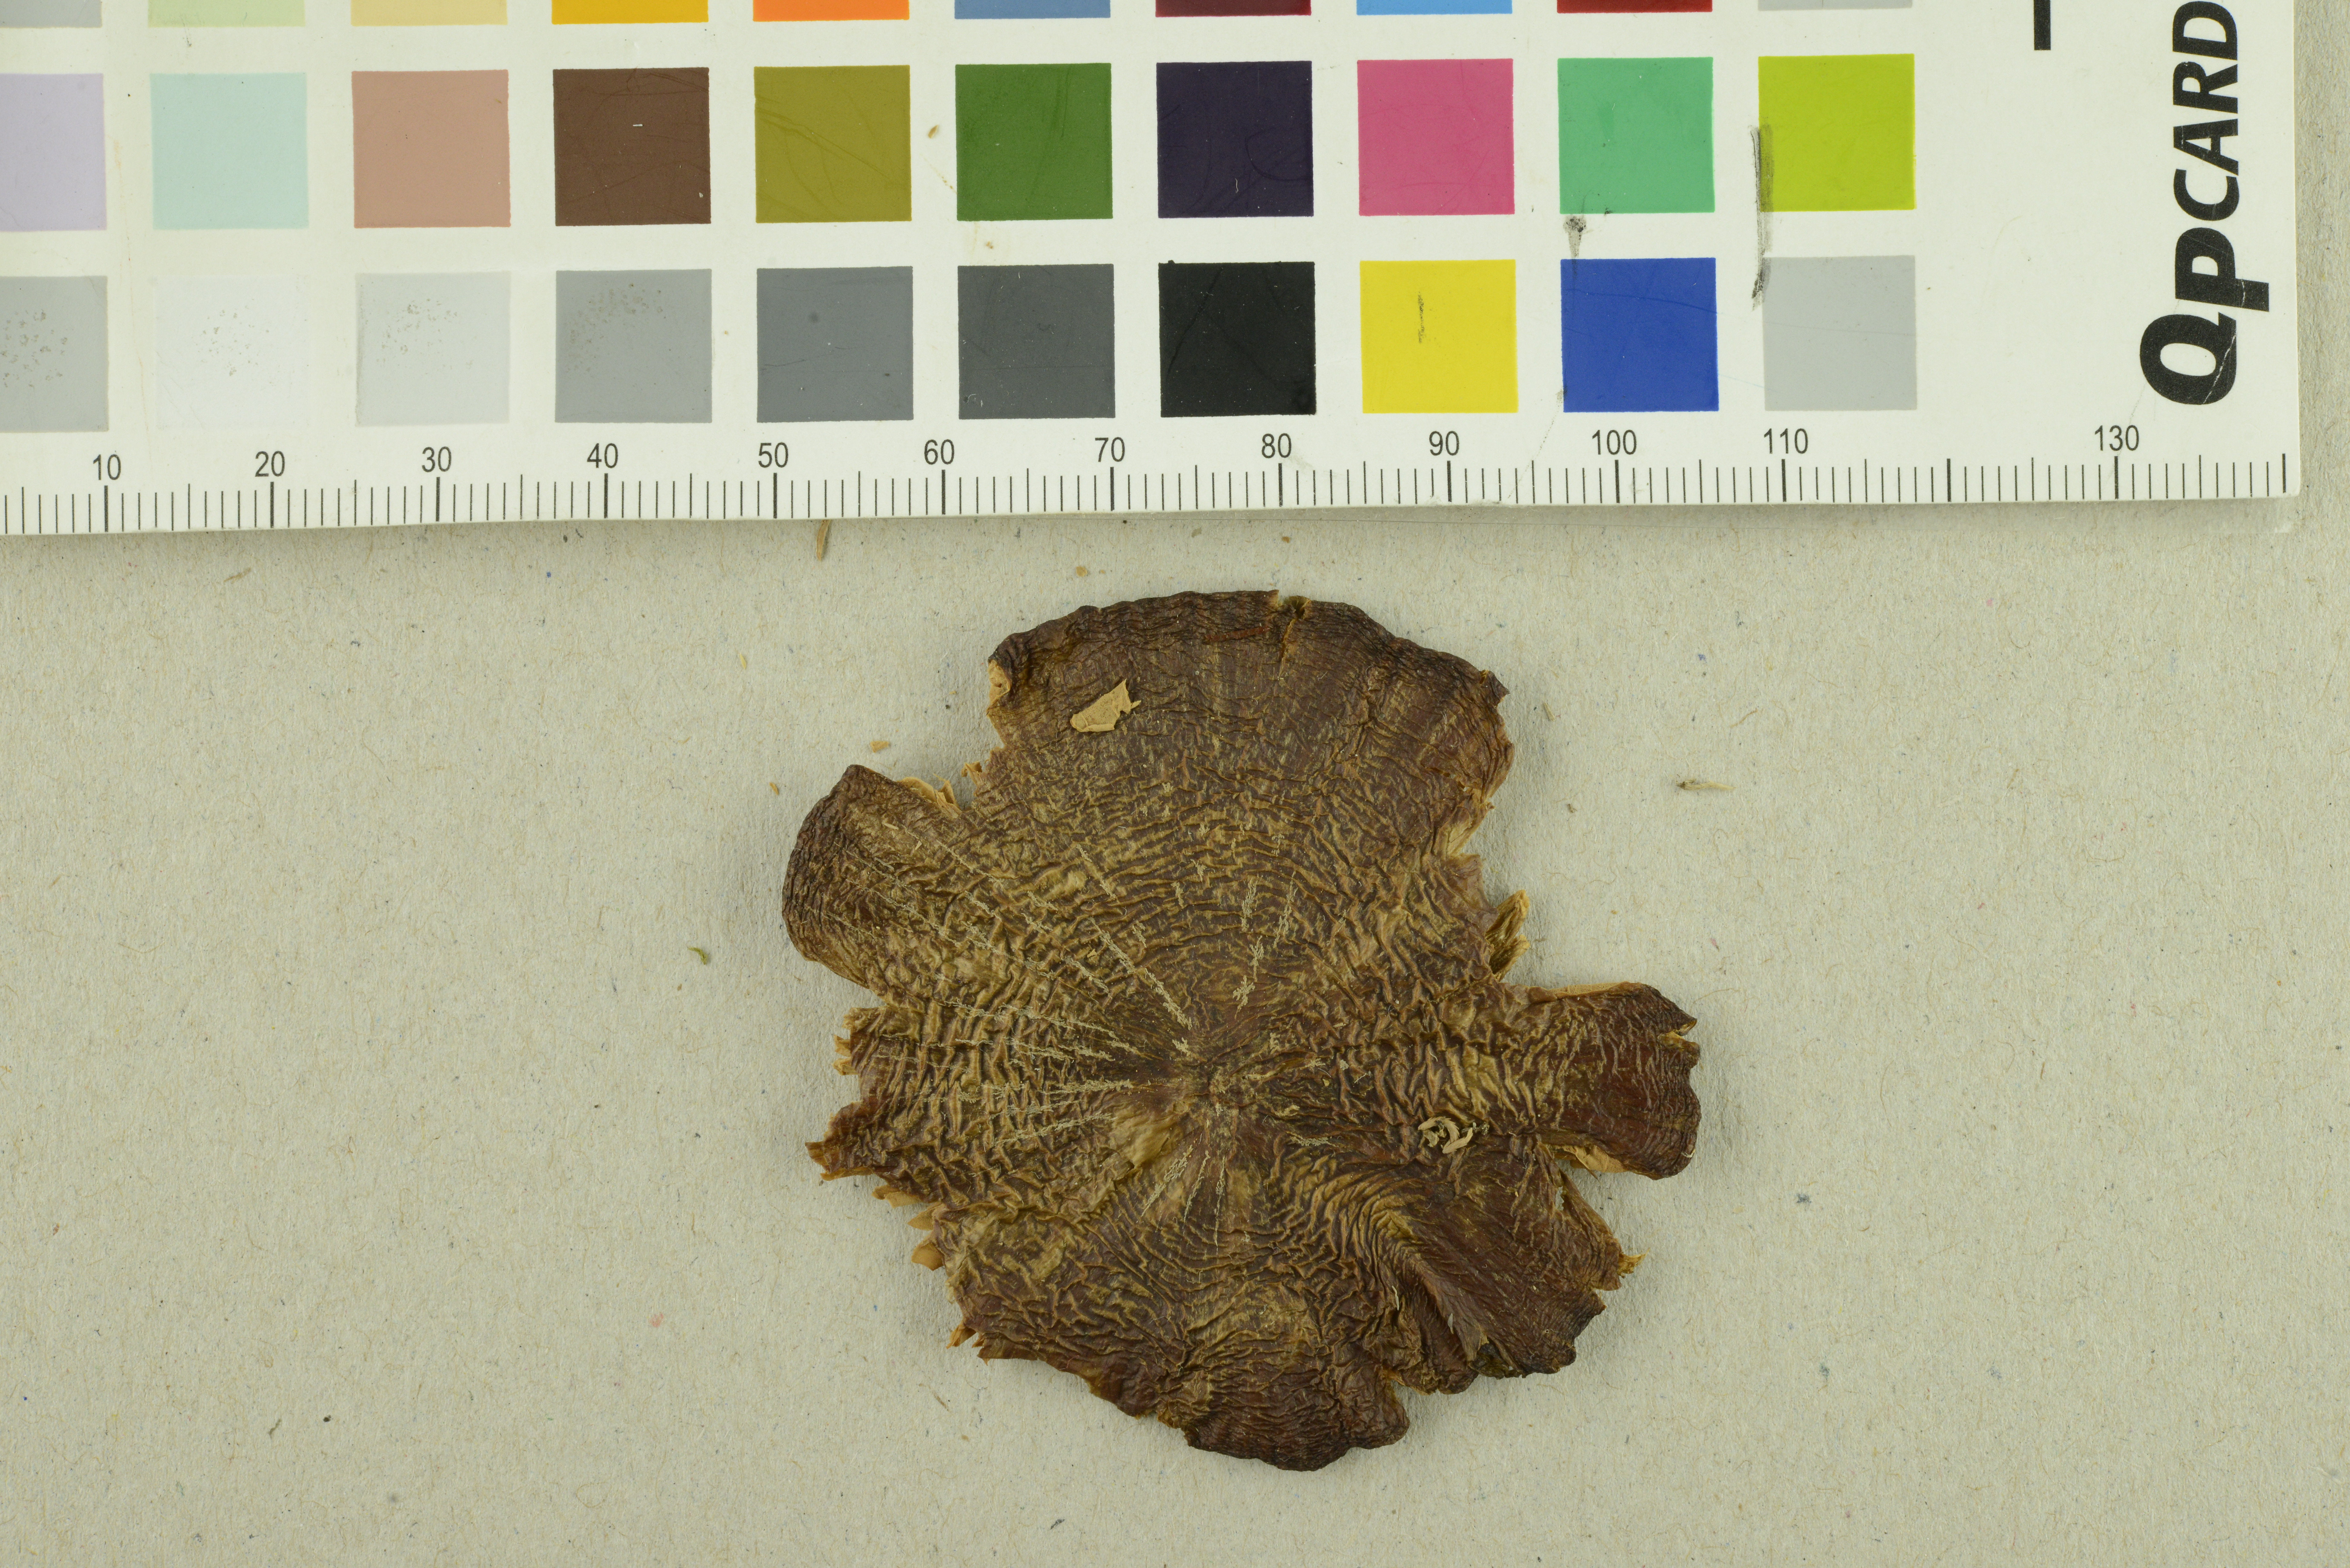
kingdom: Fungi
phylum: Basidiomycota
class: Agaricomycetes
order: Agaricales
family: Entolomataceae
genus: Entoloma
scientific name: Entoloma elodes
